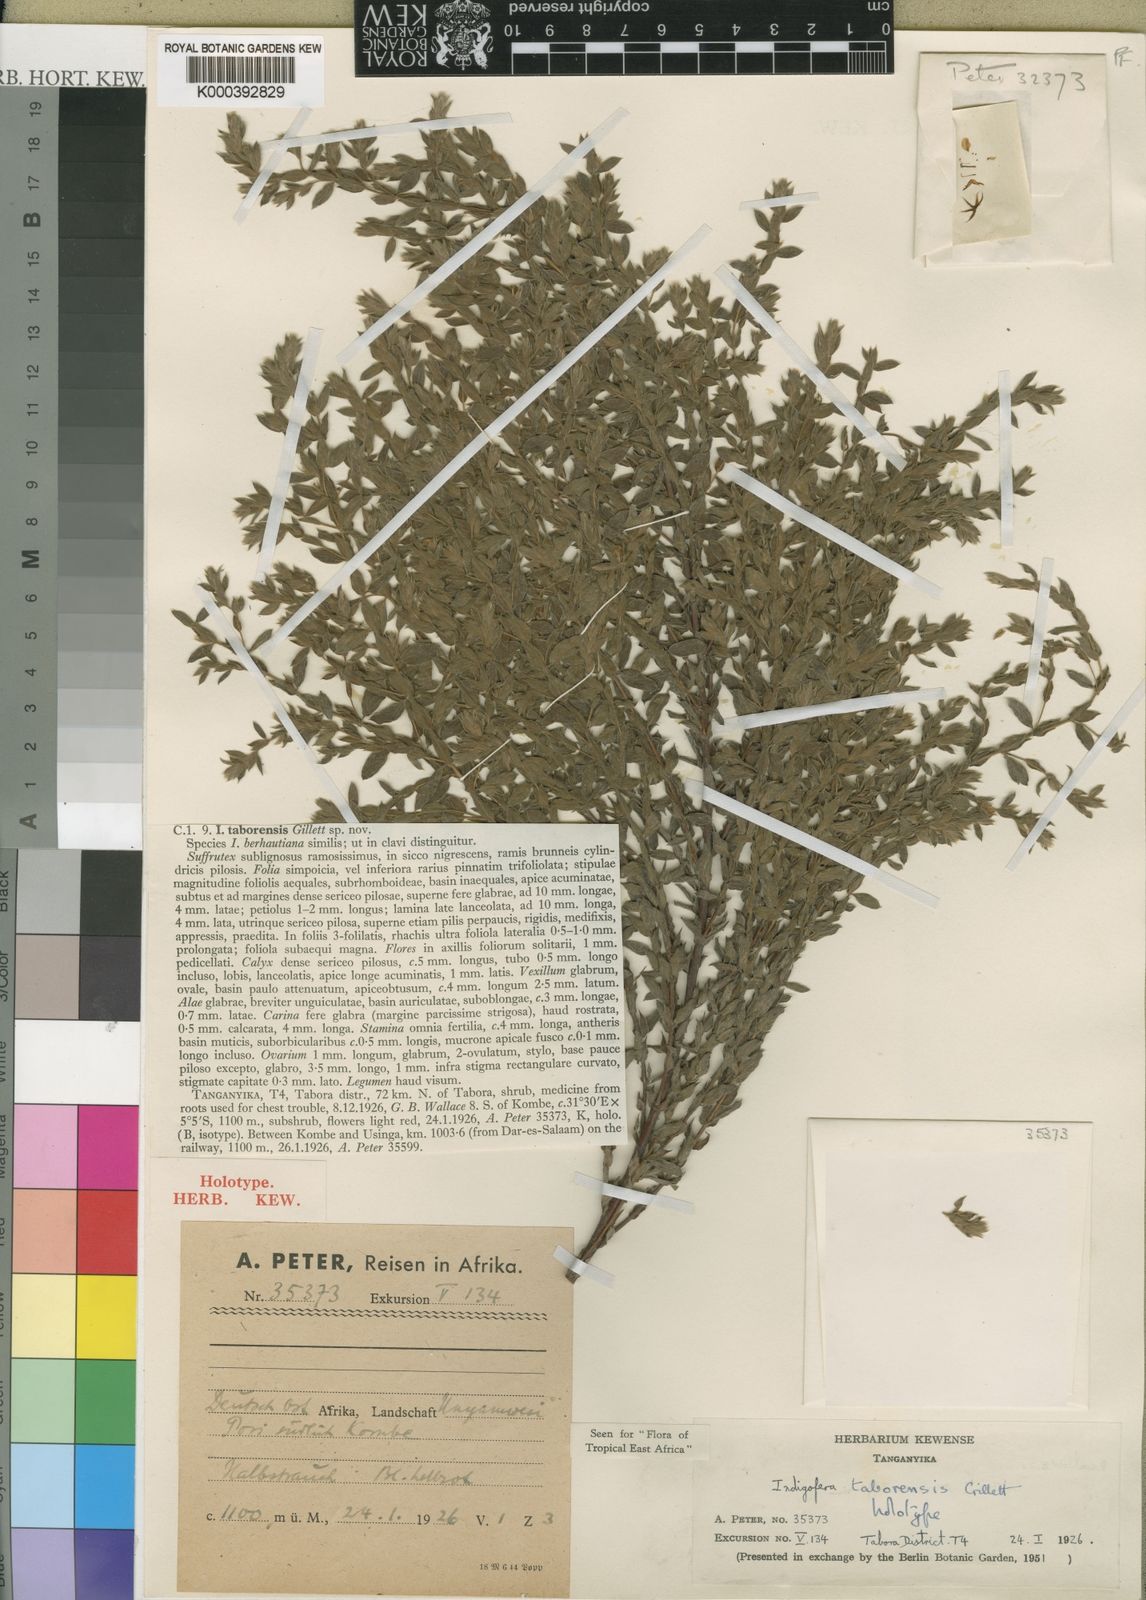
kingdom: Plantae
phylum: Tracheophyta
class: Magnoliopsida
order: Fabales
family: Fabaceae
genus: Indigofera
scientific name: Indigofera taborensis
